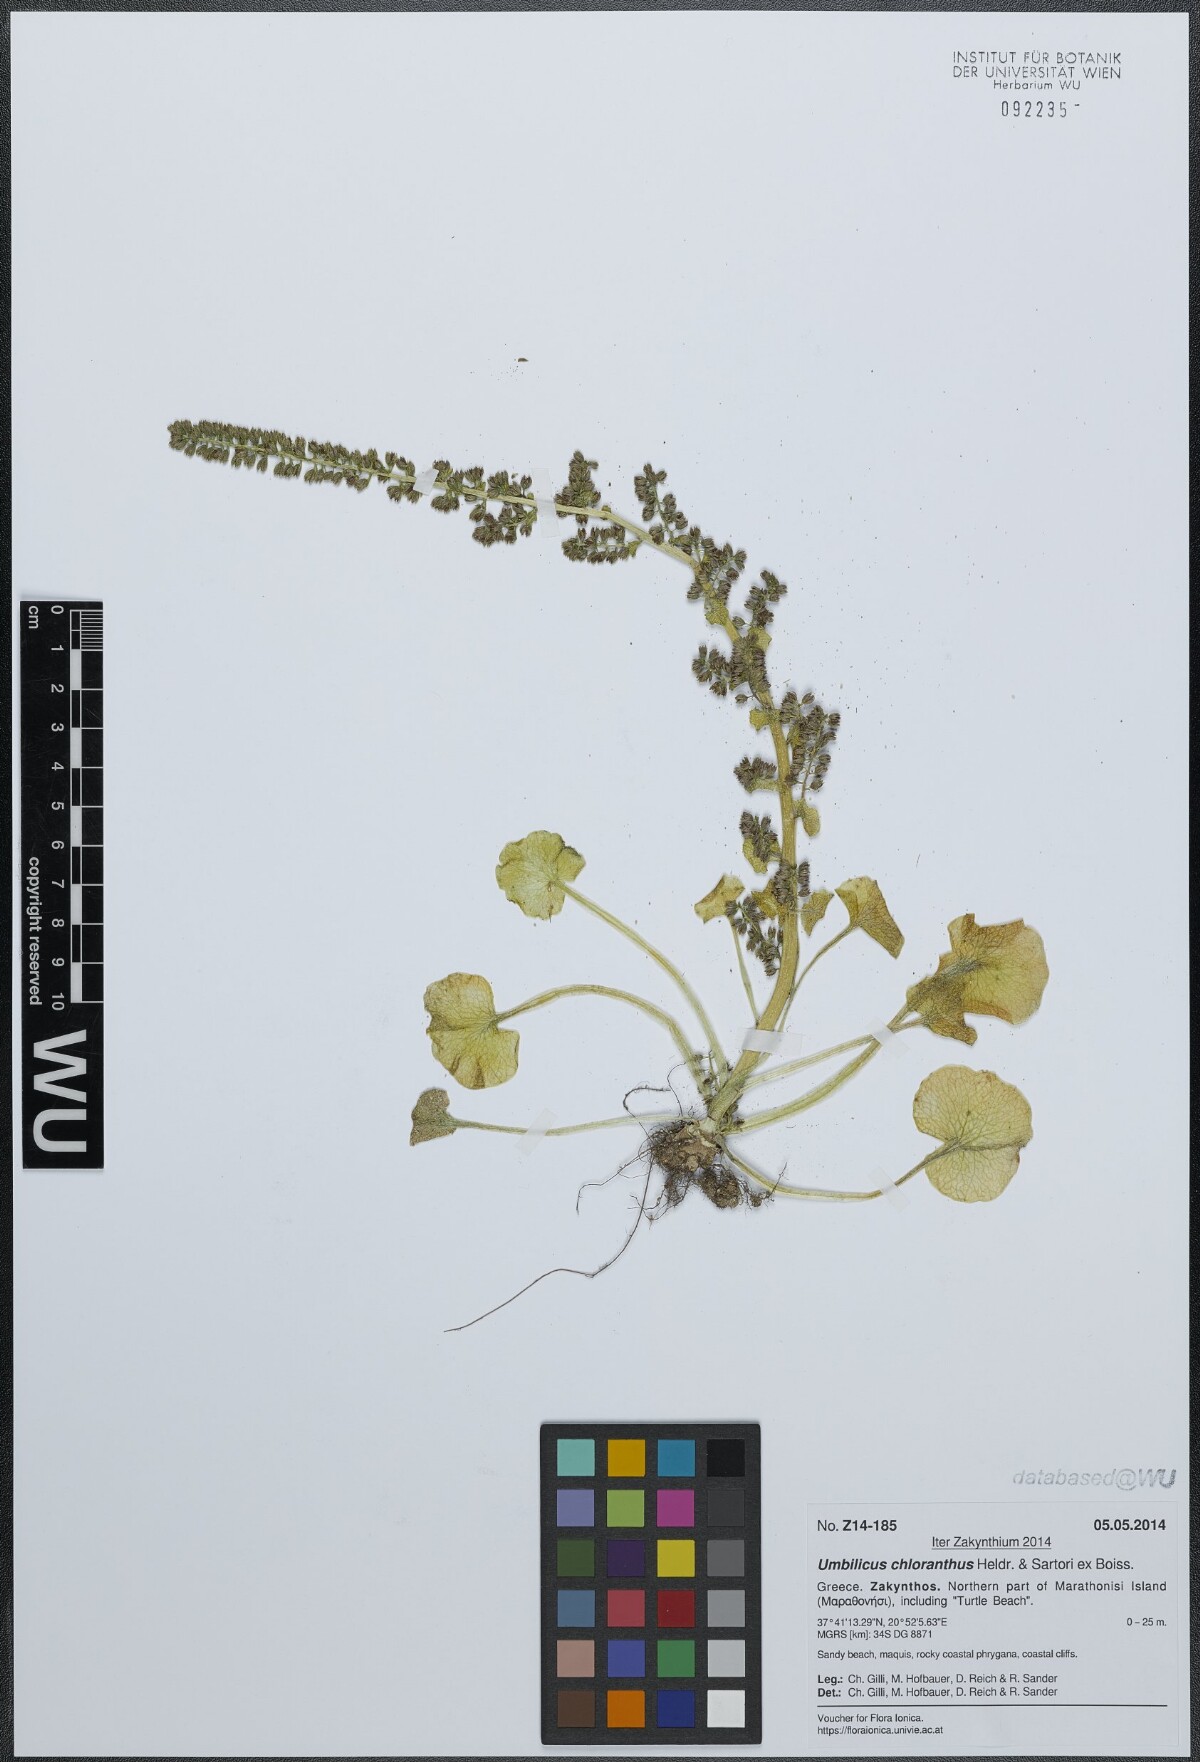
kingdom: Plantae
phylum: Tracheophyta
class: Magnoliopsida
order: Saxifragales
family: Crassulaceae
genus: Umbilicus
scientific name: Umbilicus chloranthus
